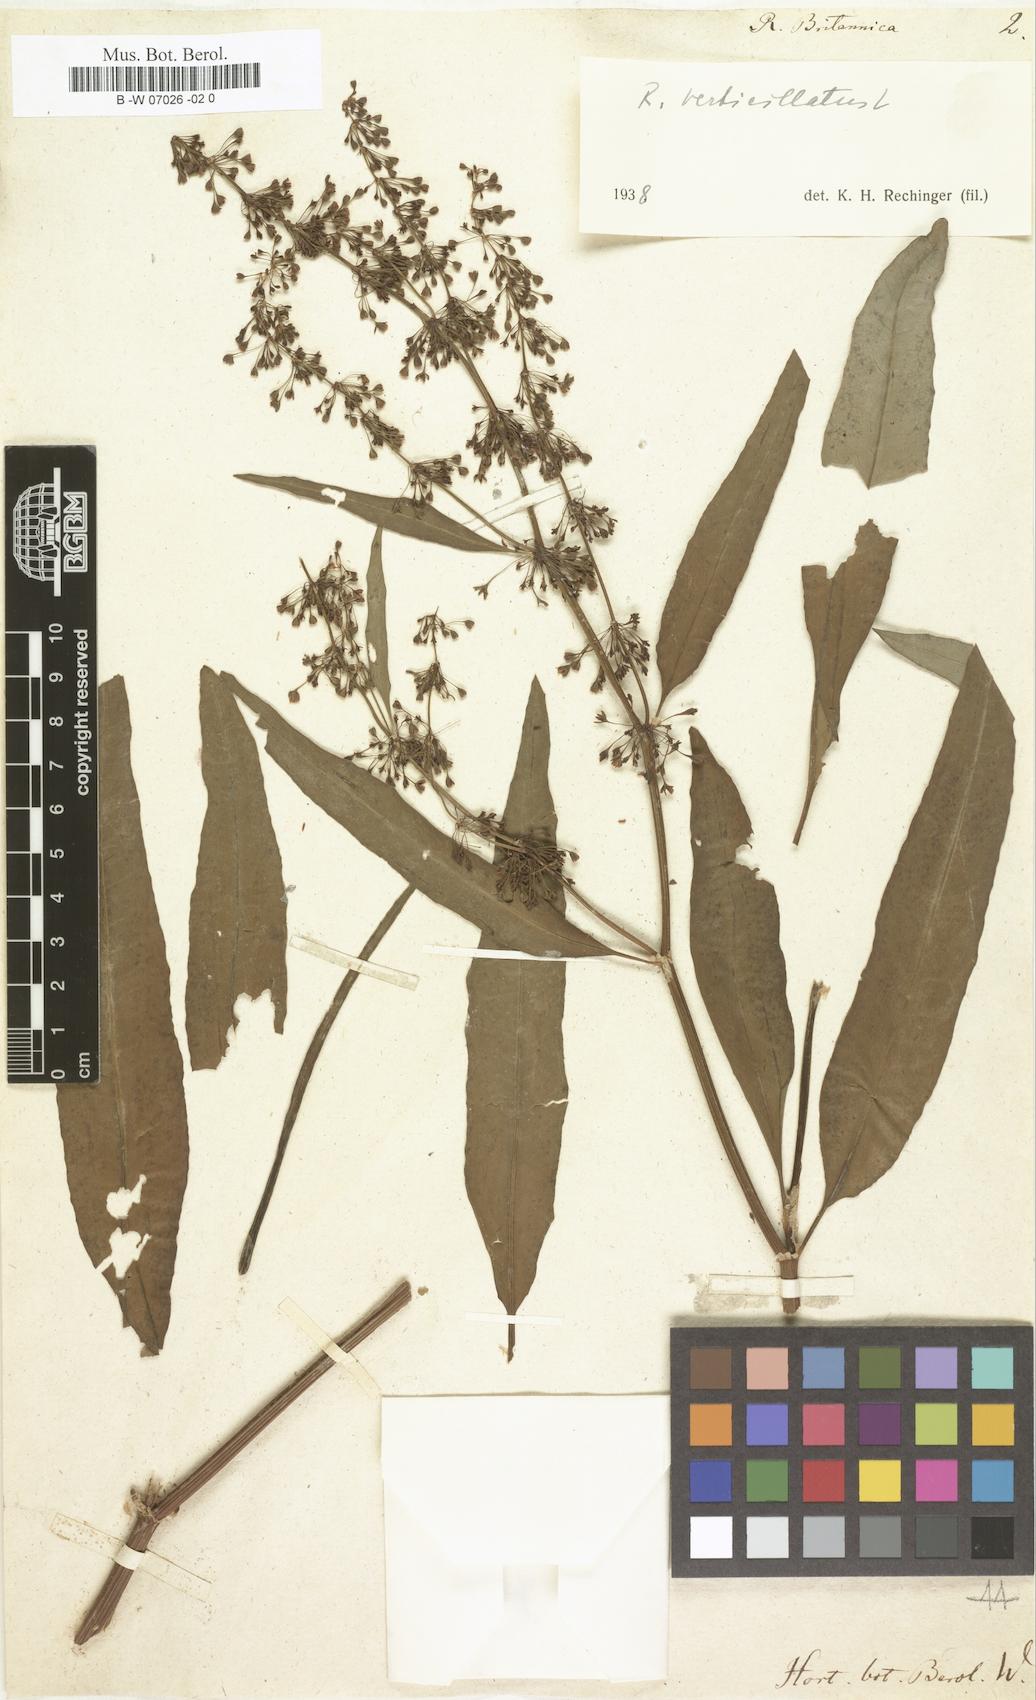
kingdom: Plantae
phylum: Tracheophyta
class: Magnoliopsida
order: Caryophyllales
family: Polygonaceae
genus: Rumex
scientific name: Rumex britannica
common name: British dock
